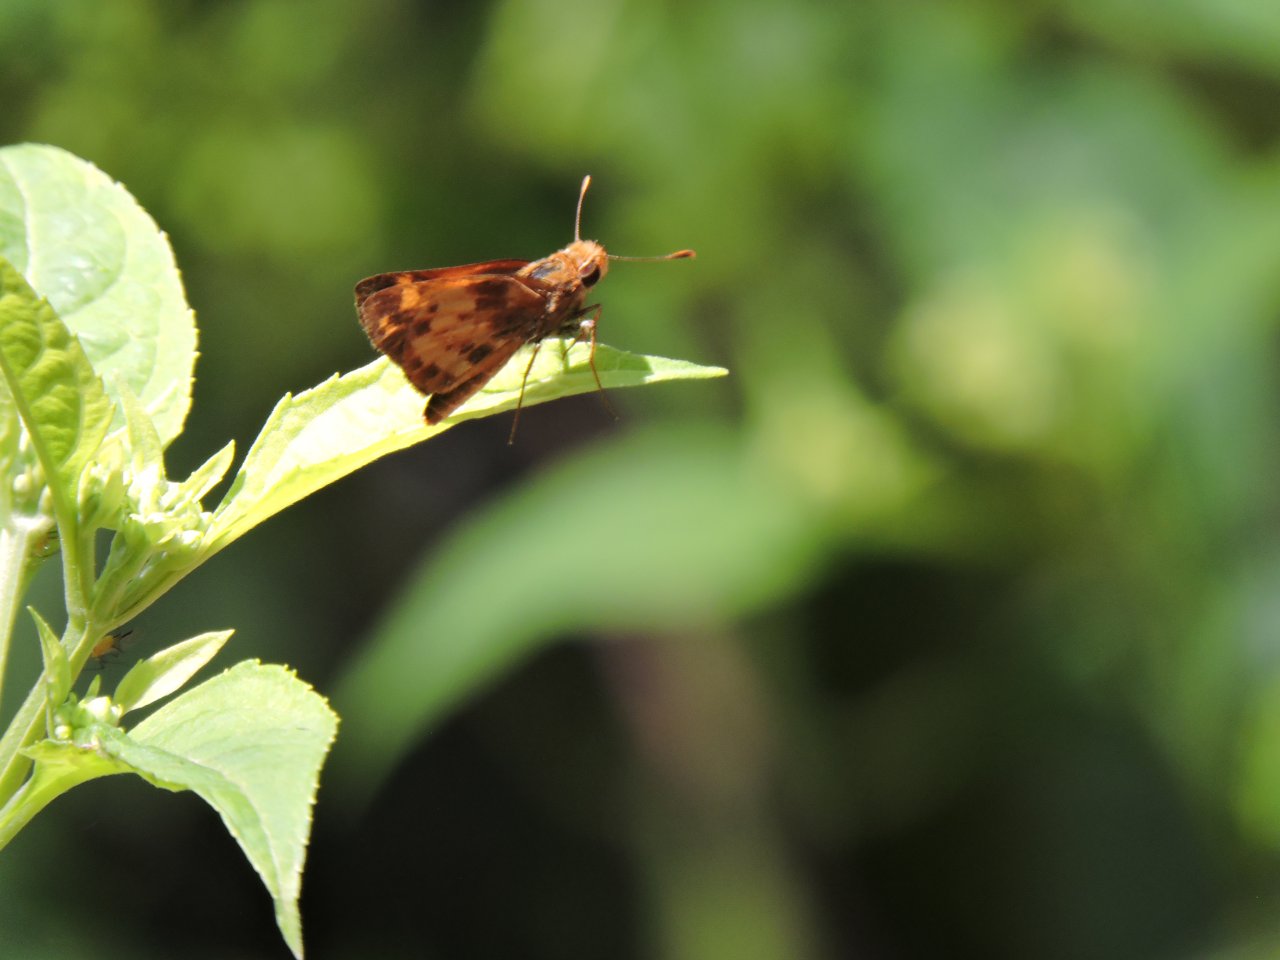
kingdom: Animalia
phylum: Arthropoda
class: Insecta
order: Lepidoptera
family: Hesperiidae
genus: Lon
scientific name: Lon zabulon
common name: Zabulon Skipper
